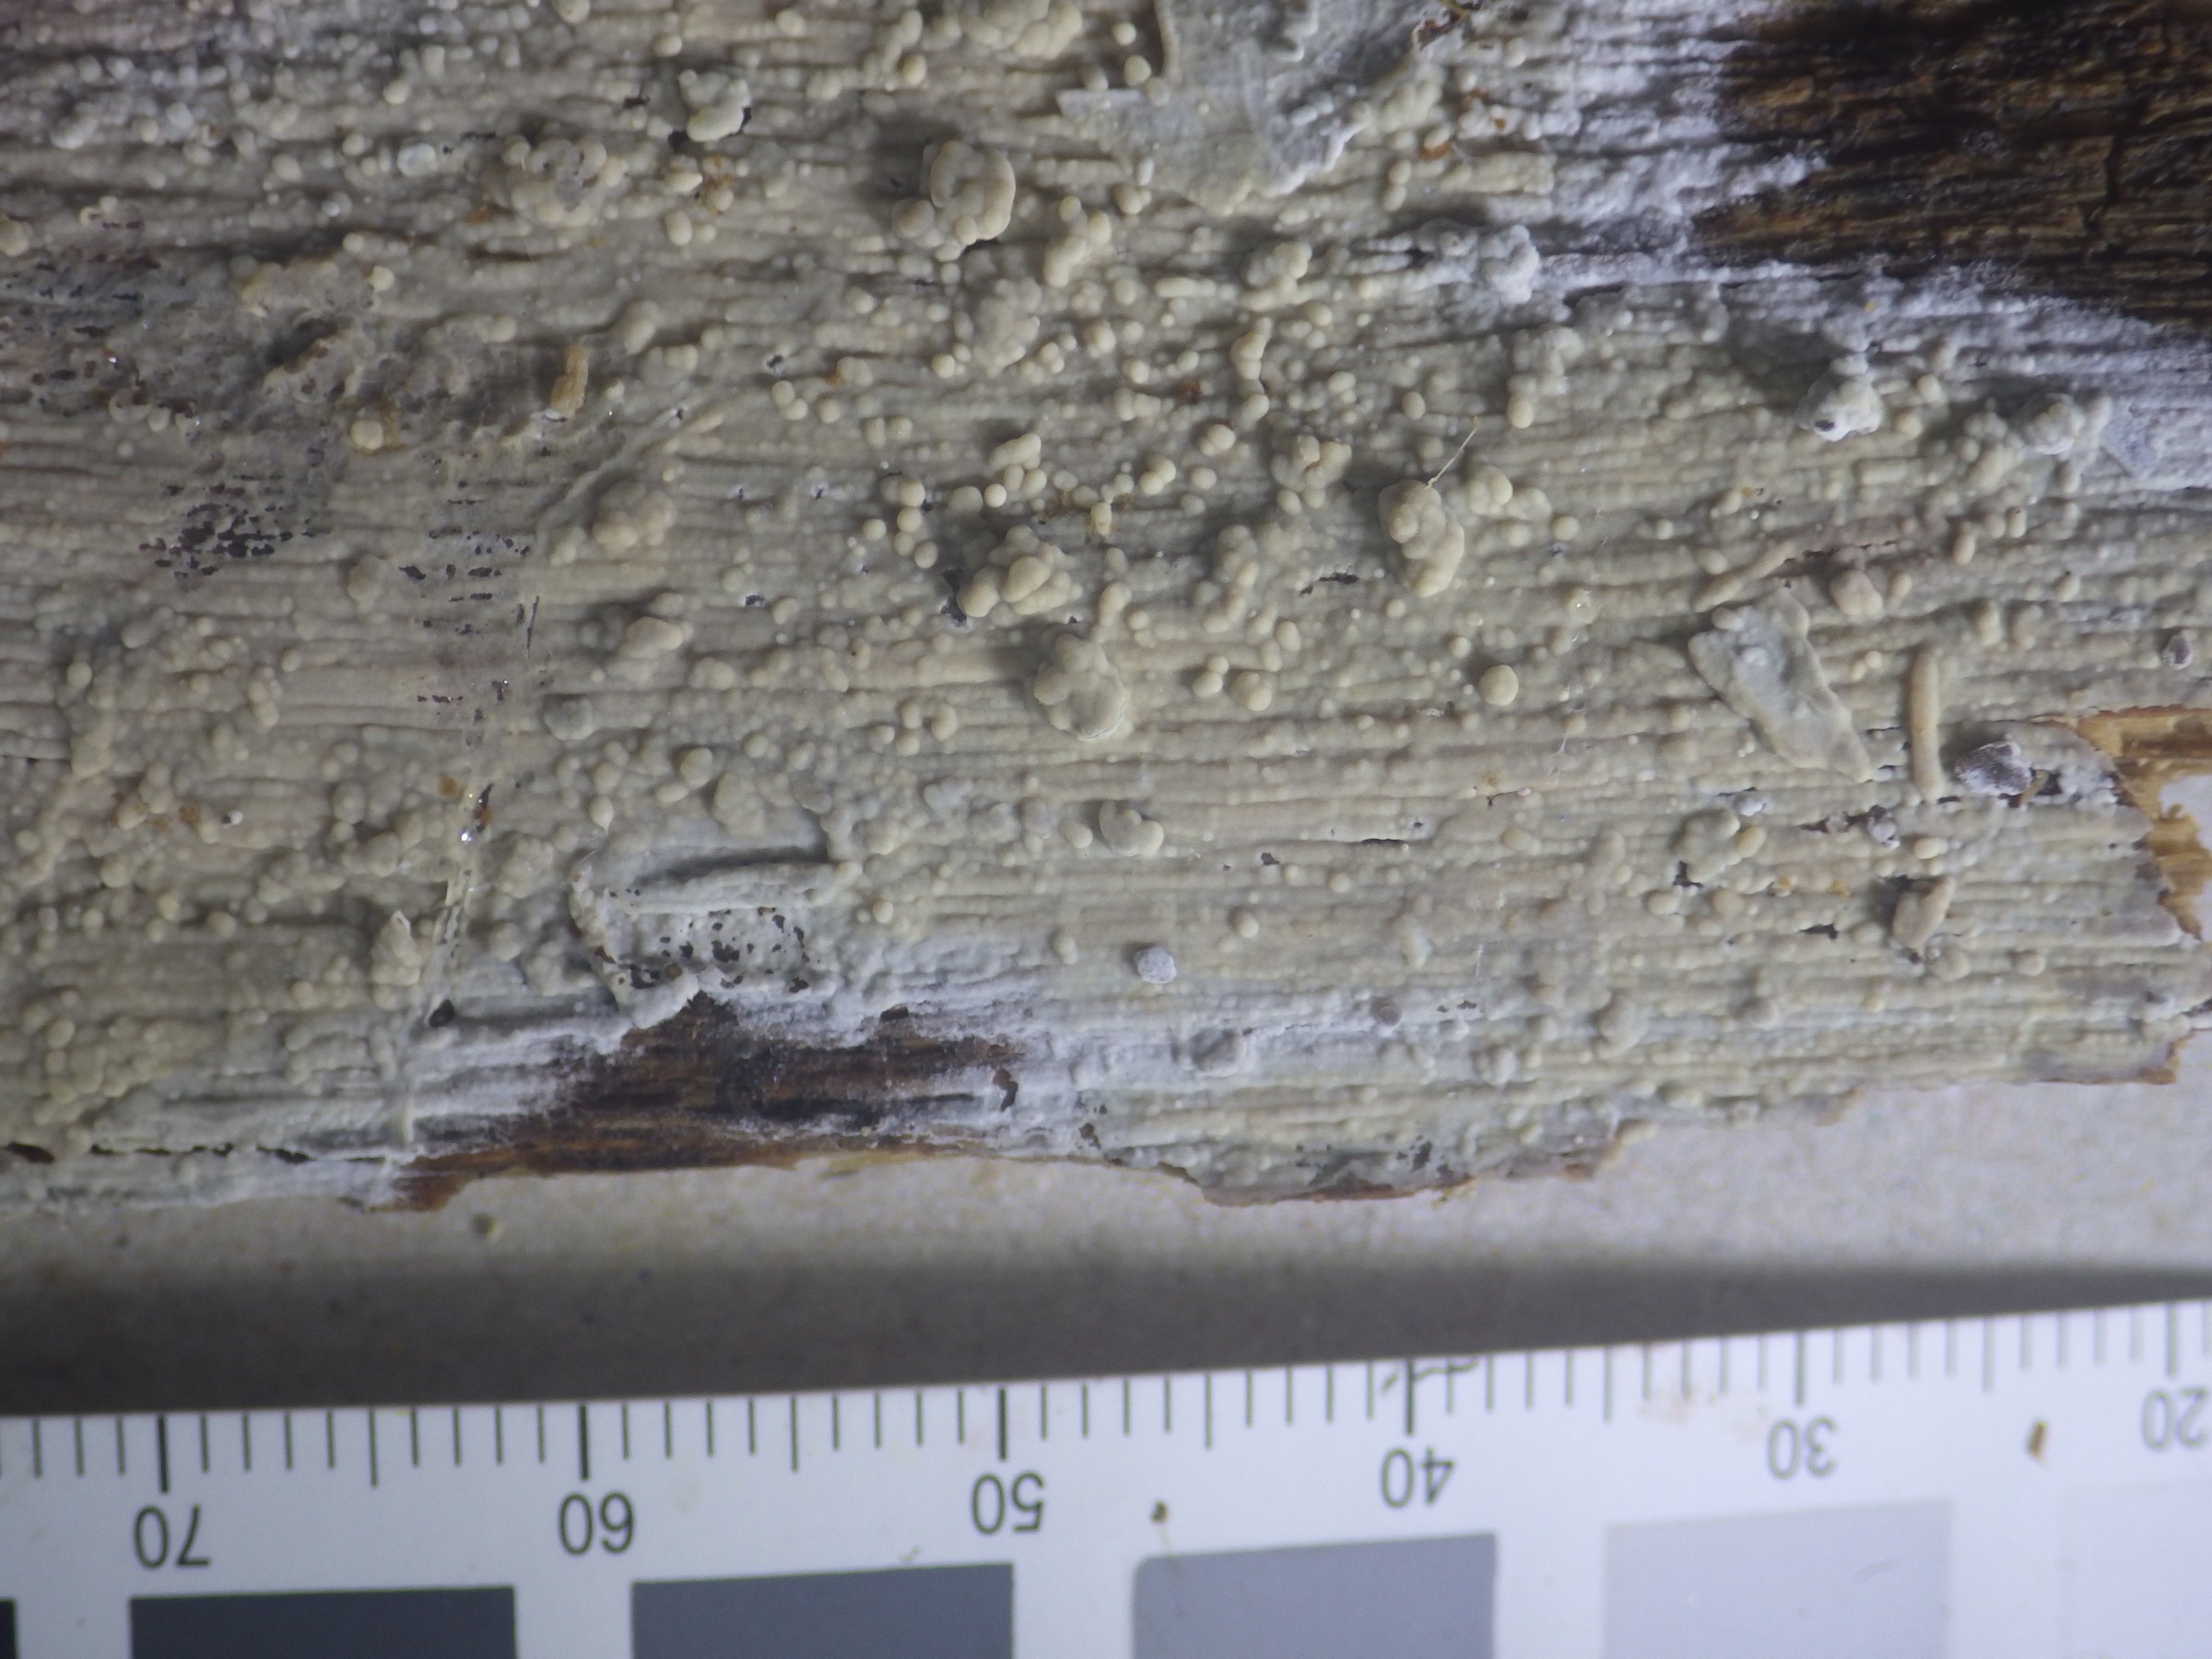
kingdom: Fungi
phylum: Basidiomycota
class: Agaricomycetes
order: Polyporales
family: Hyphodermataceae
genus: Hyphoderma
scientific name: Hyphoderma roseocremeum
